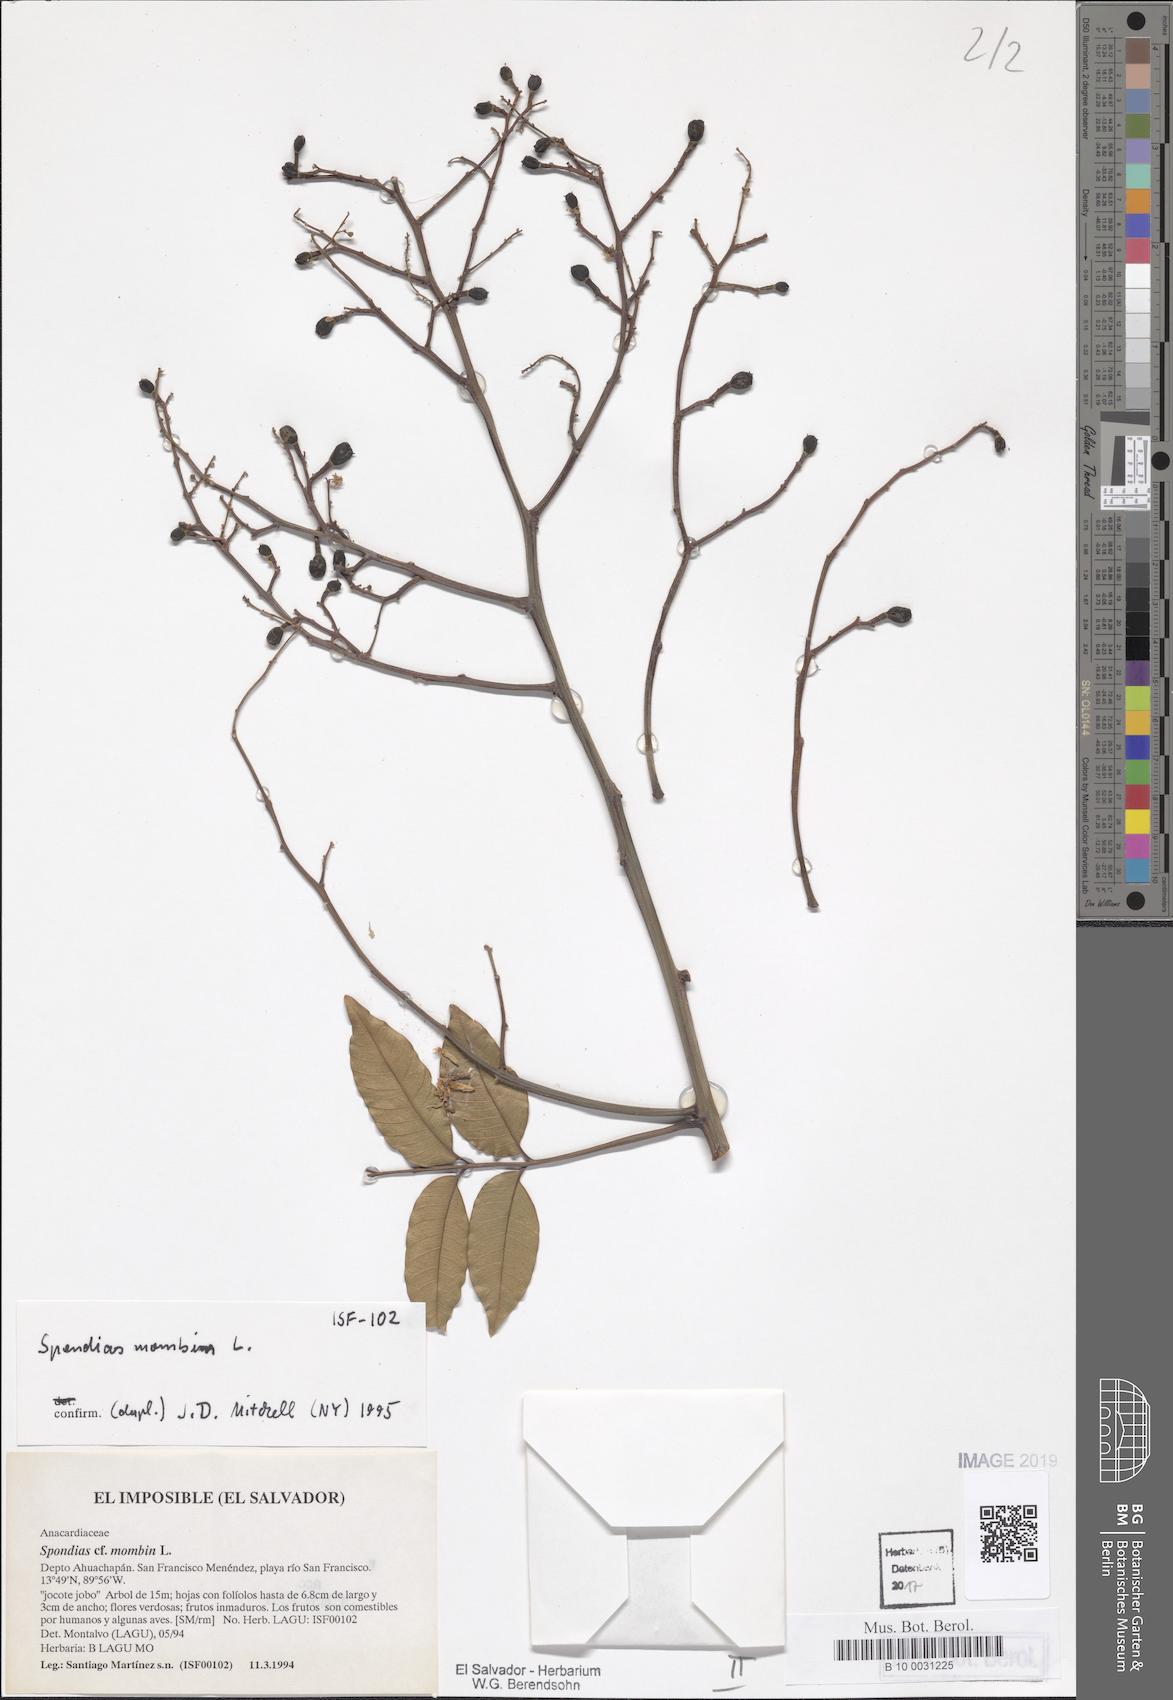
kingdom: Plantae
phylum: Tracheophyta
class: Magnoliopsida
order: Sapindales
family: Anacardiaceae
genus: Spondias
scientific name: Spondias mombin
